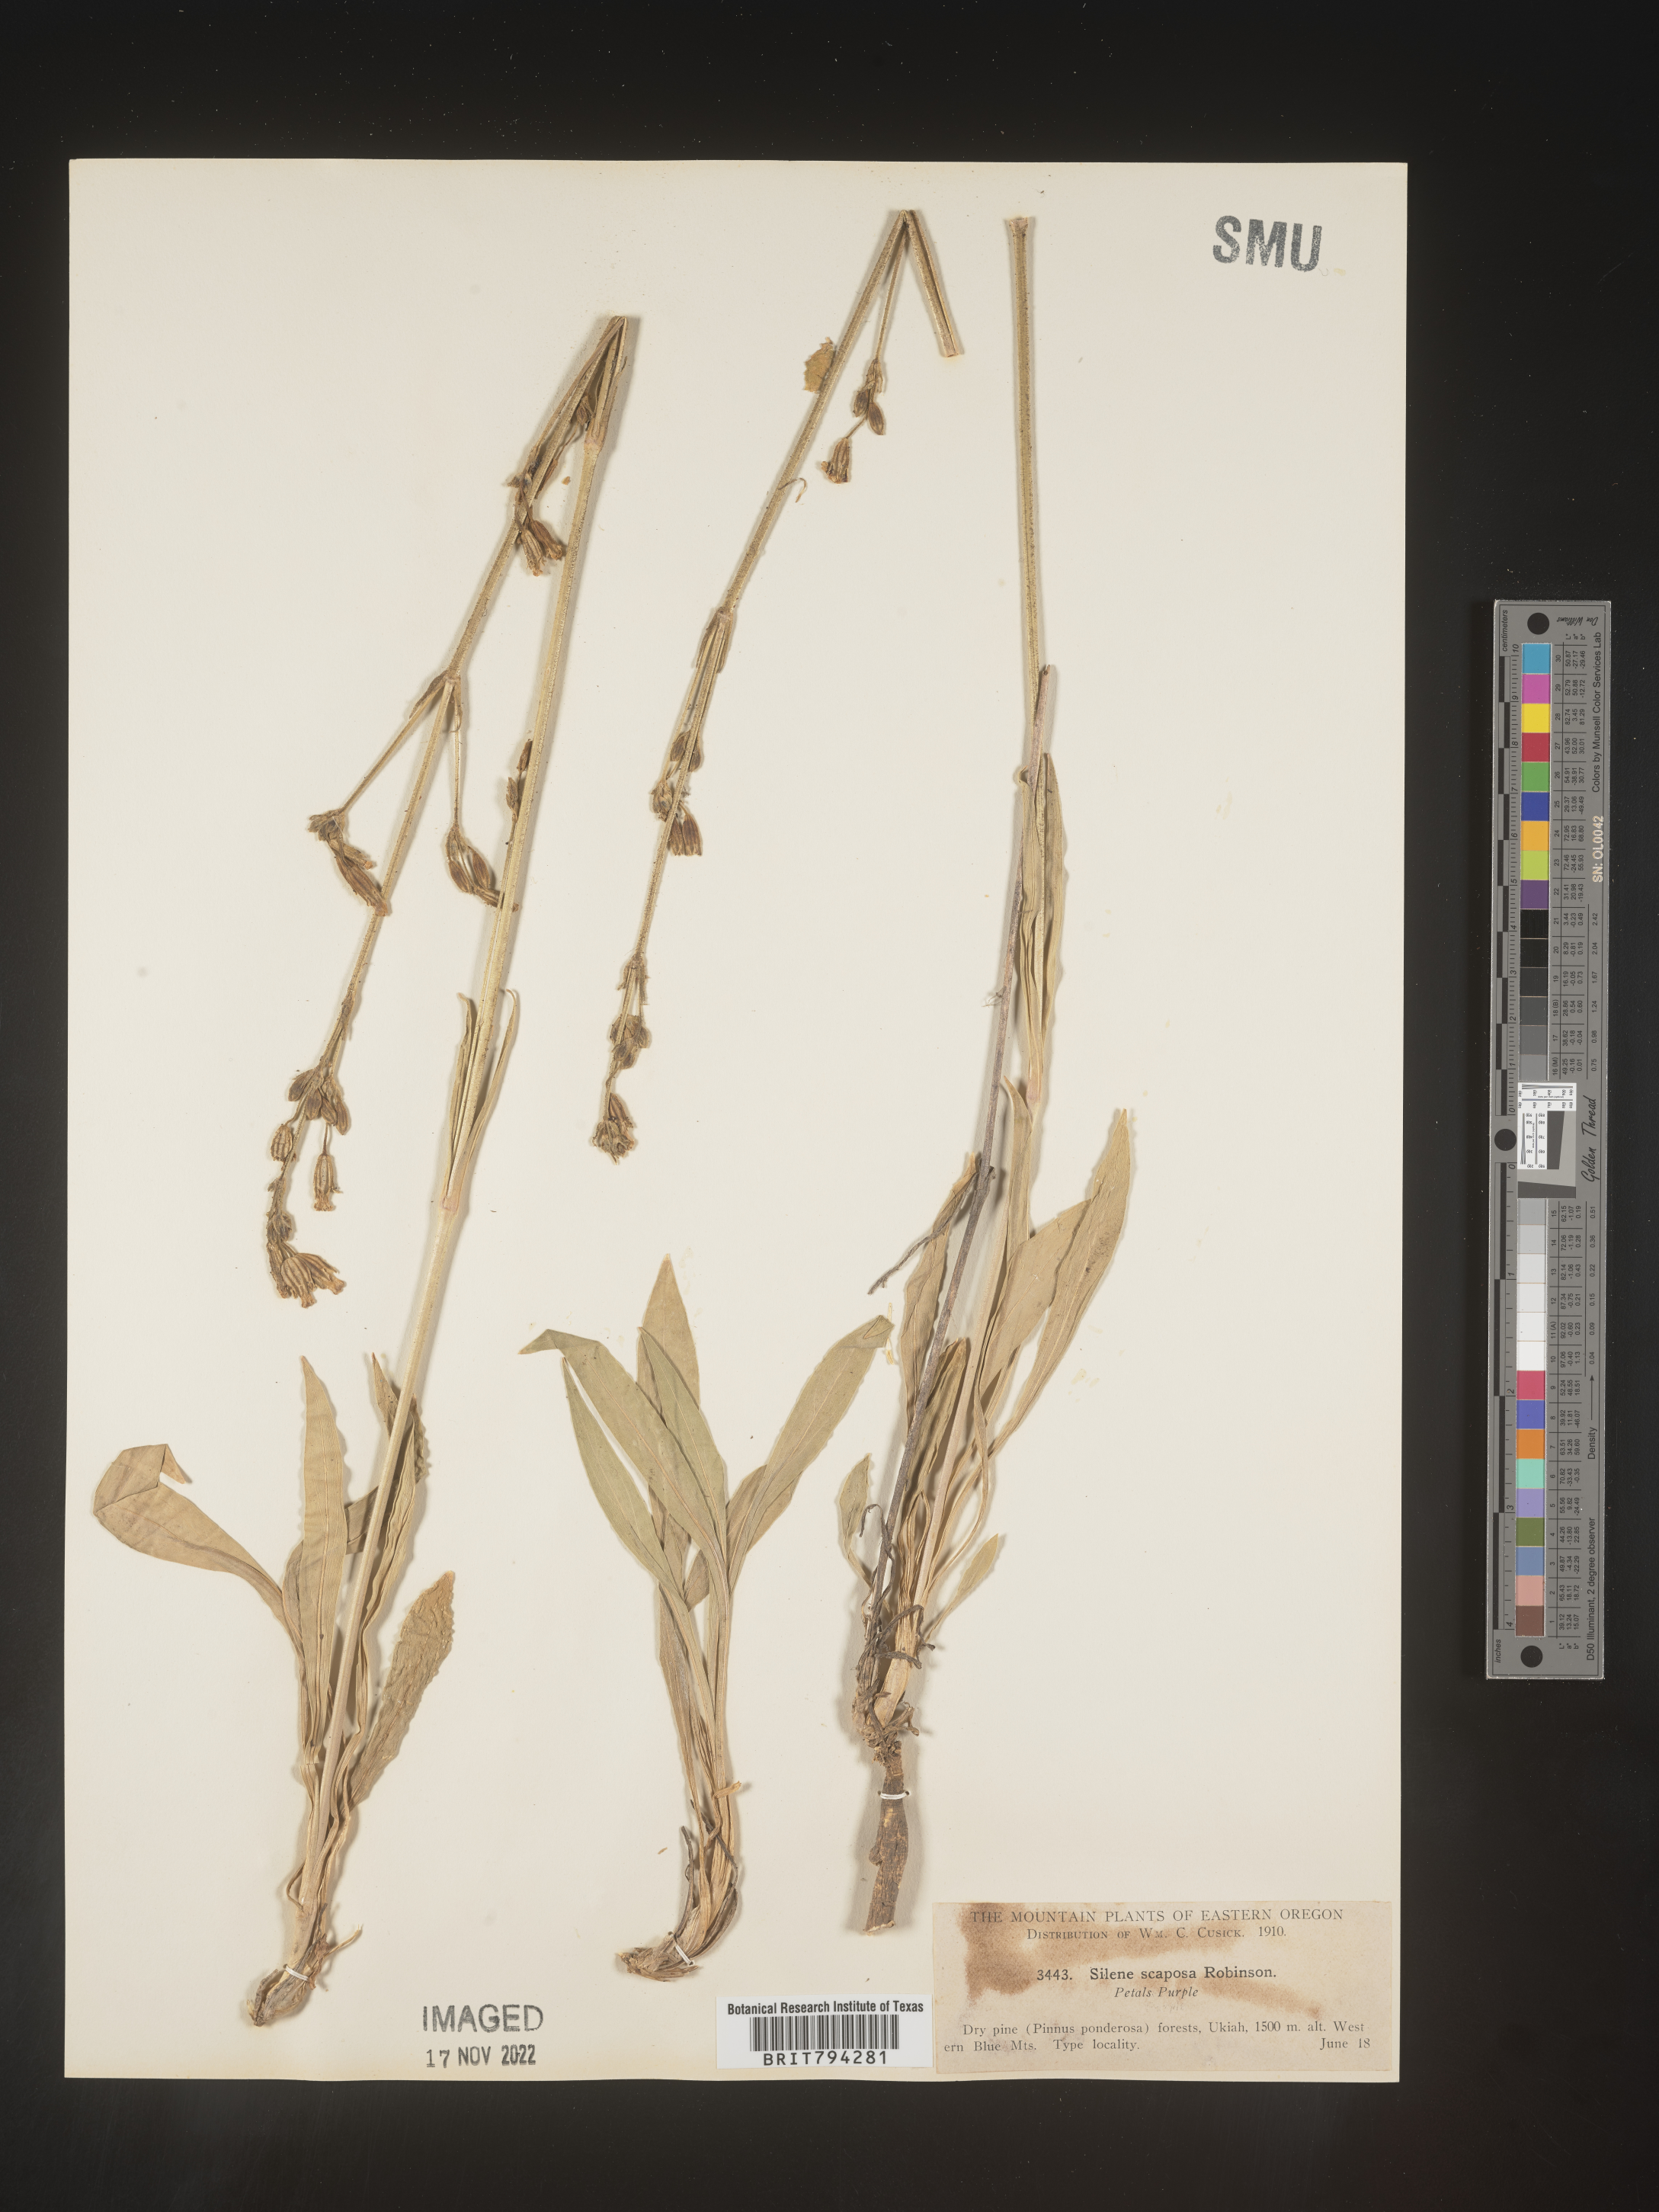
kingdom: Plantae
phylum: Tracheophyta
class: Magnoliopsida
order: Caryophyllales
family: Caryophyllaceae
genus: Silene
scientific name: Silene scaposa
